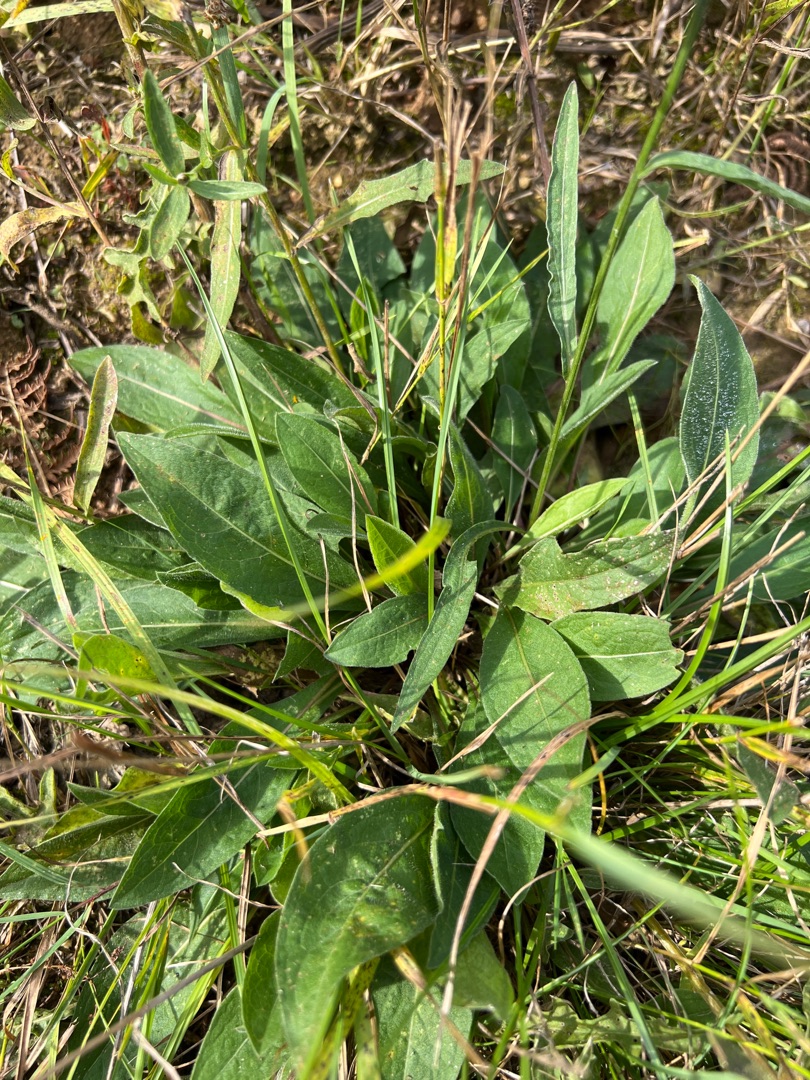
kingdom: Plantae
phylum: Tracheophyta
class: Magnoliopsida
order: Asterales
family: Asteraceae
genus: Centaurea
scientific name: Centaurea jacea
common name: Almindelig knopurt
